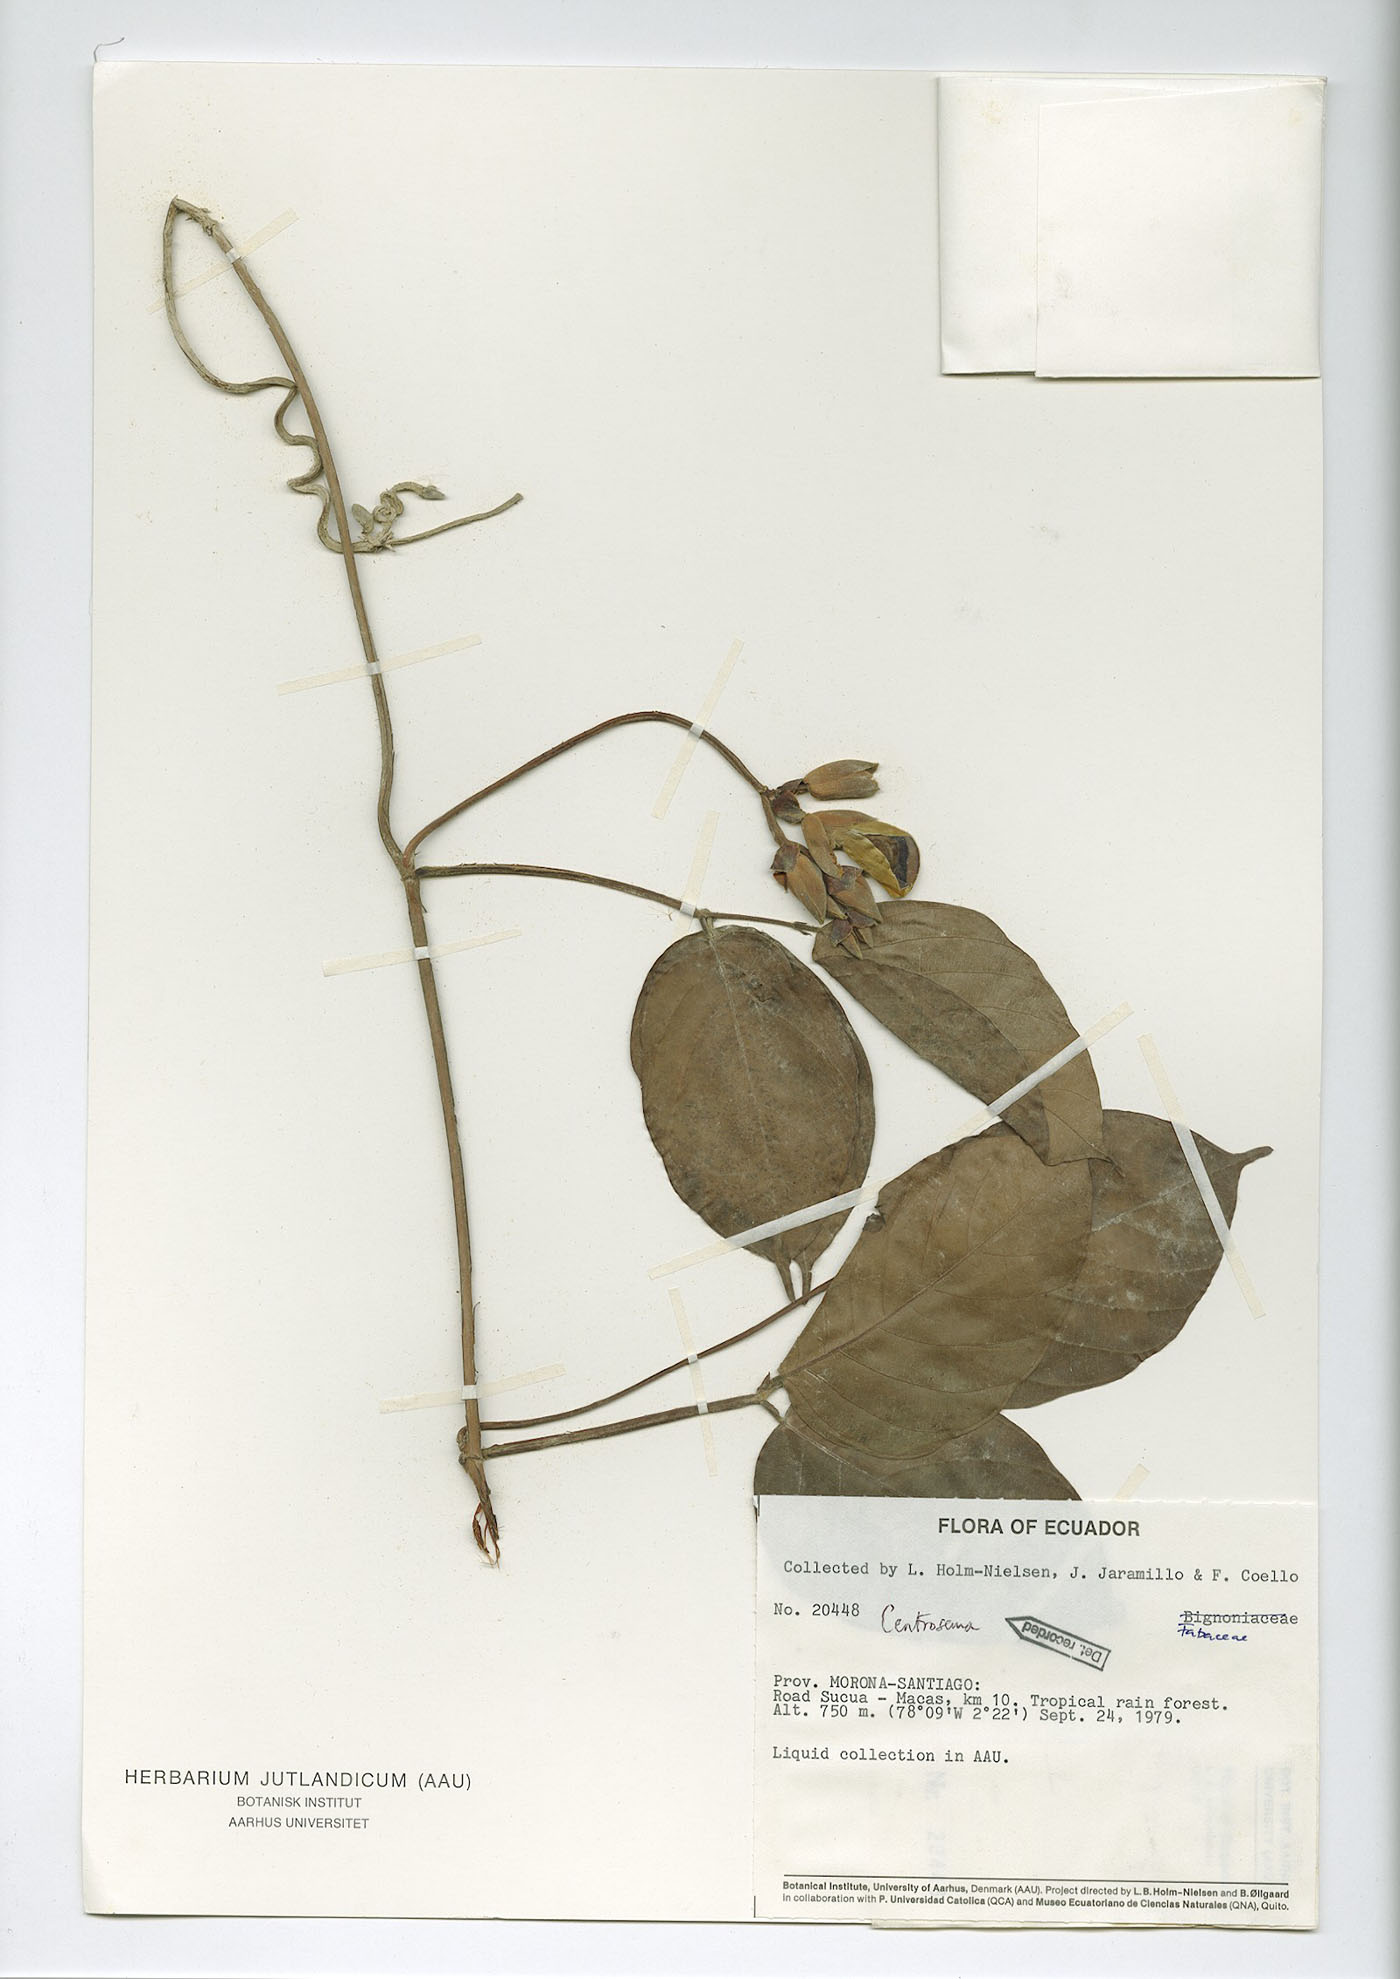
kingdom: Plantae
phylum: Tracheophyta
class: Magnoliopsida
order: Fabales
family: Fabaceae
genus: Centrosema
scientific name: Centrosema triquetrum
